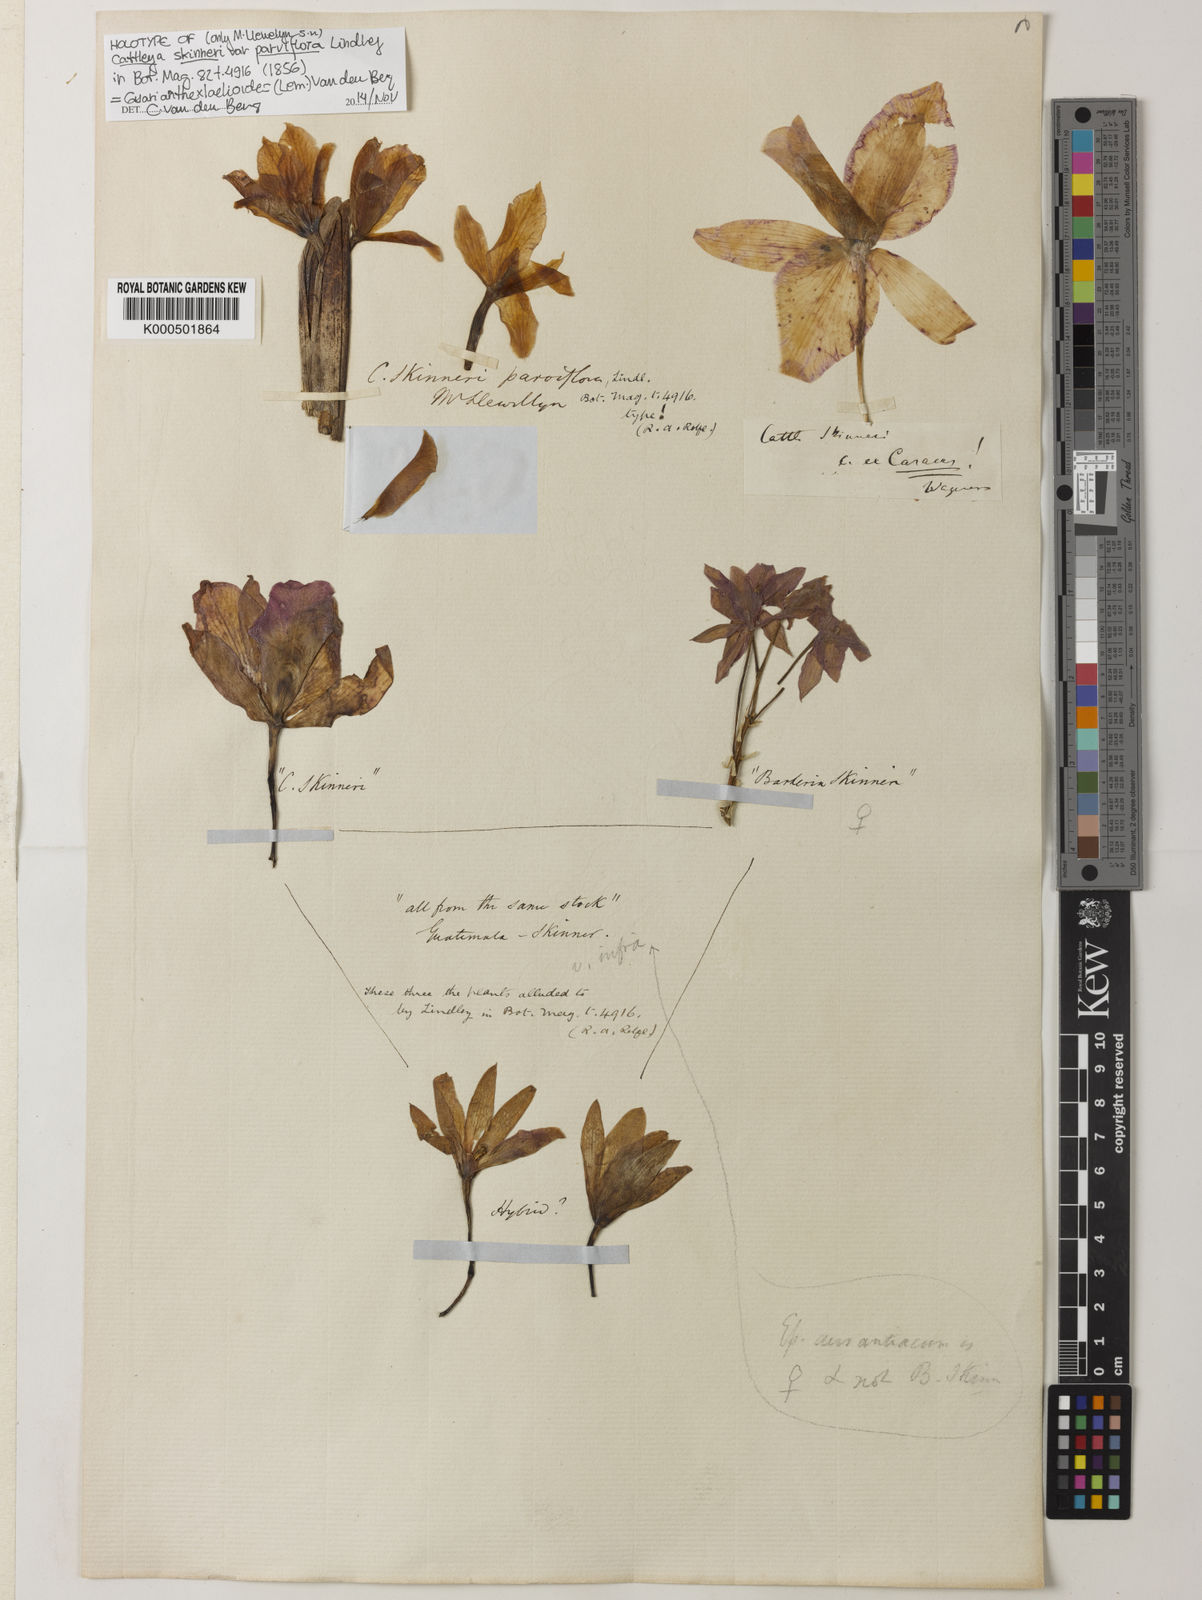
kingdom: Plantae
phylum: Tracheophyta
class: Liliopsida
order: Asparagales
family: Orchidaceae
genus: Guarianthe
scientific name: Guarianthe laelioides
